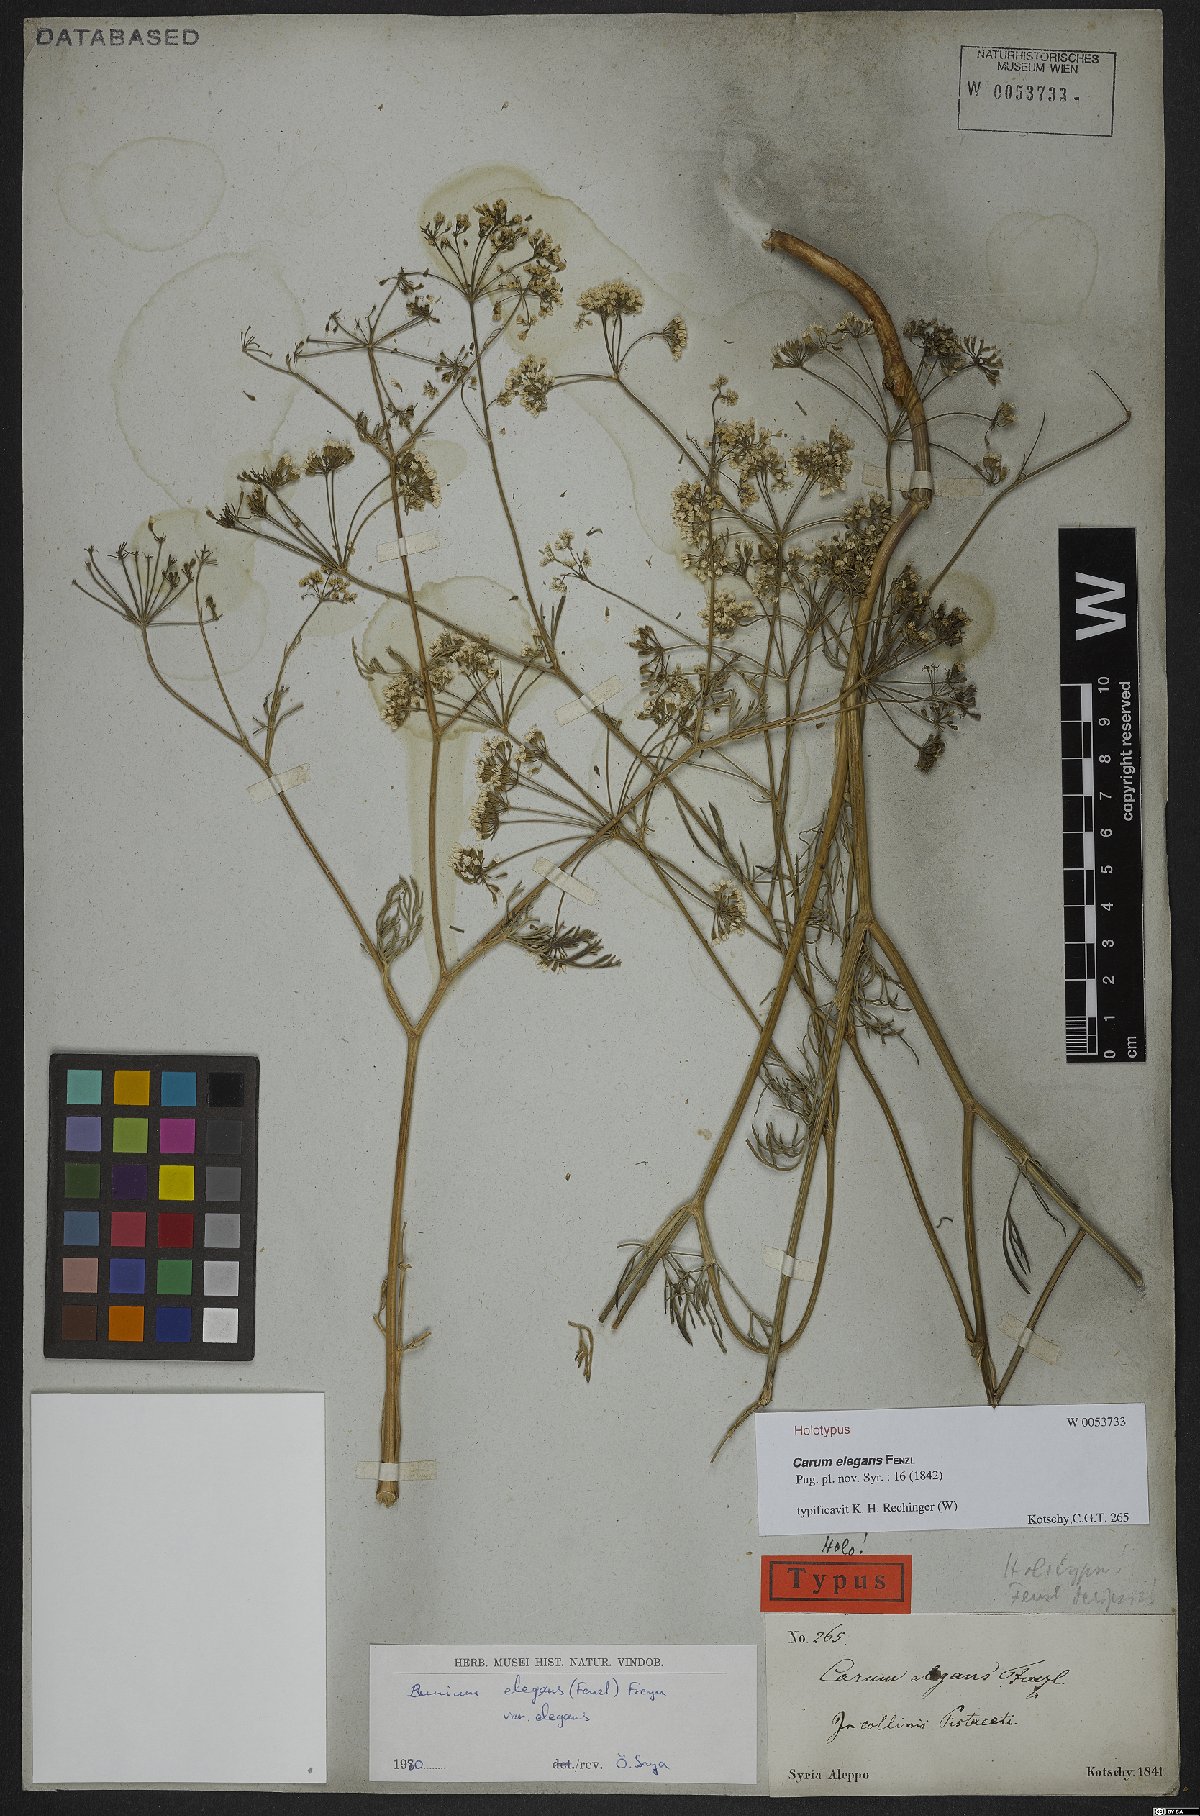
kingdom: Plantae
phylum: Tracheophyta
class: Magnoliopsida
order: Apiales
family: Apiaceae
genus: Bunium
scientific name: Bunium elegans
